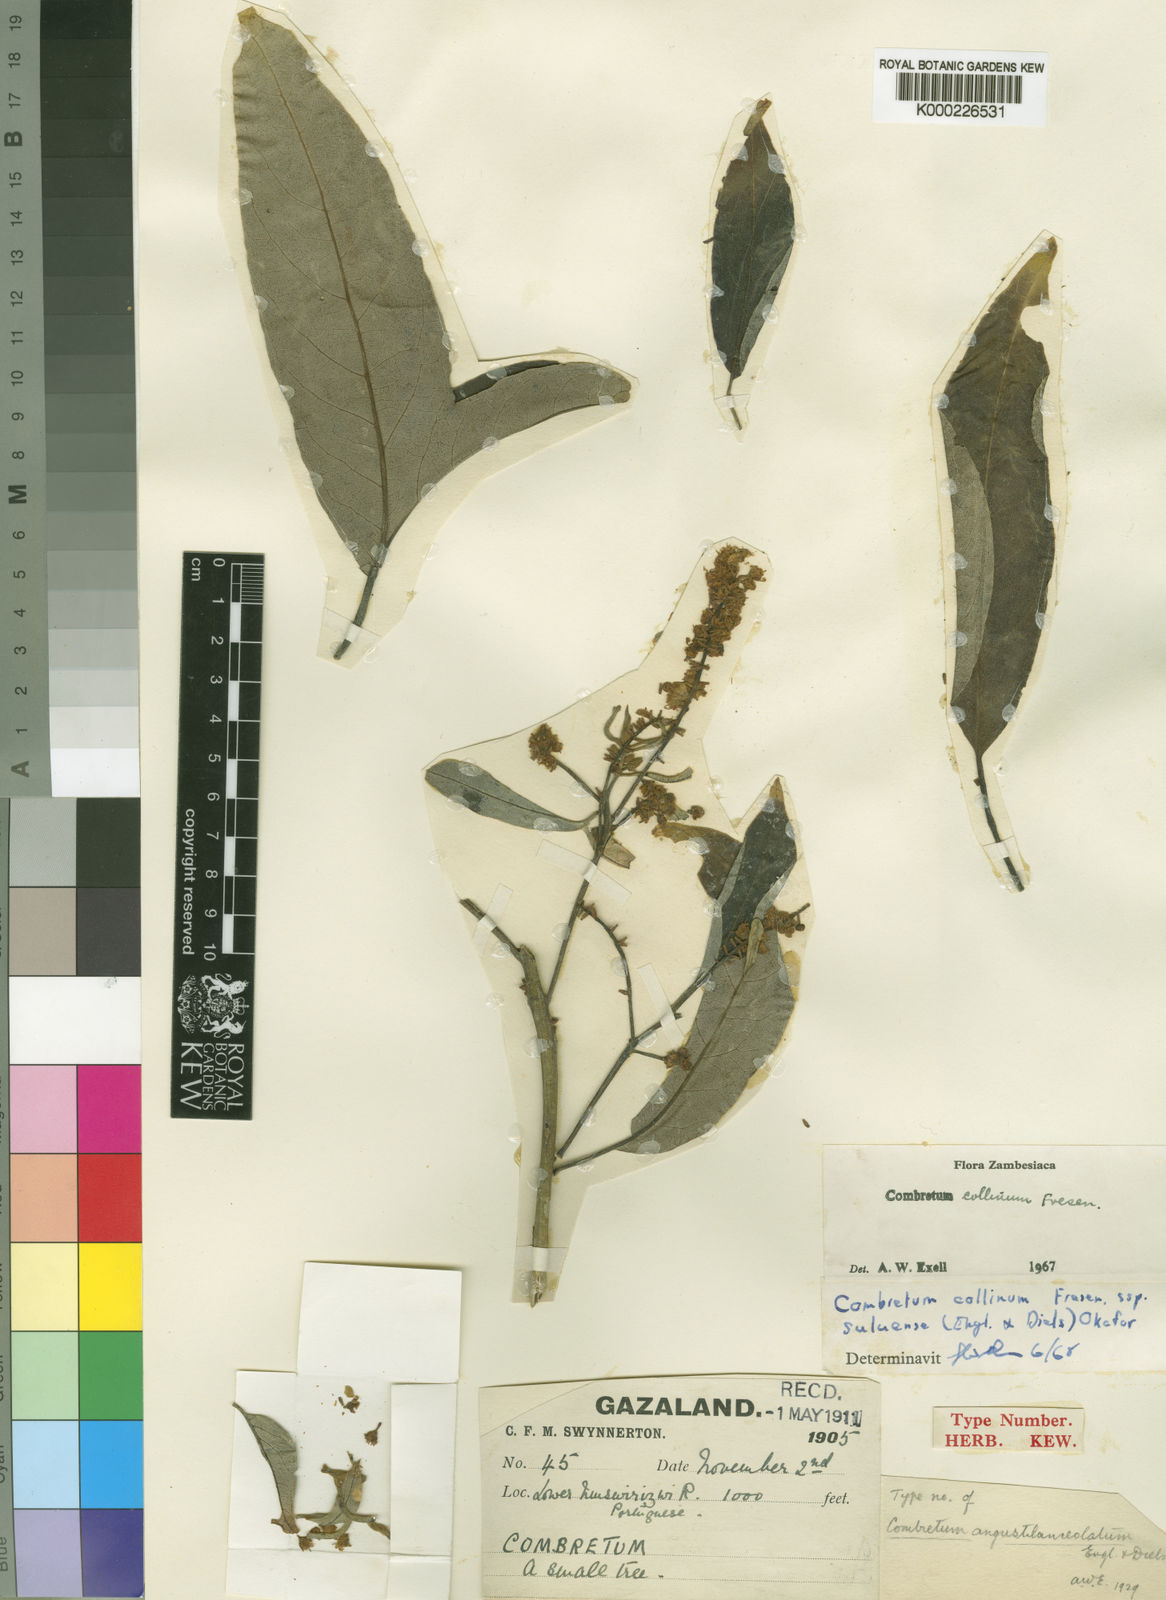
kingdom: Plantae
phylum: Tracheophyta
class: Magnoliopsida
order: Myrtales
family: Combretaceae
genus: Combretum
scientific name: Combretum collinum
